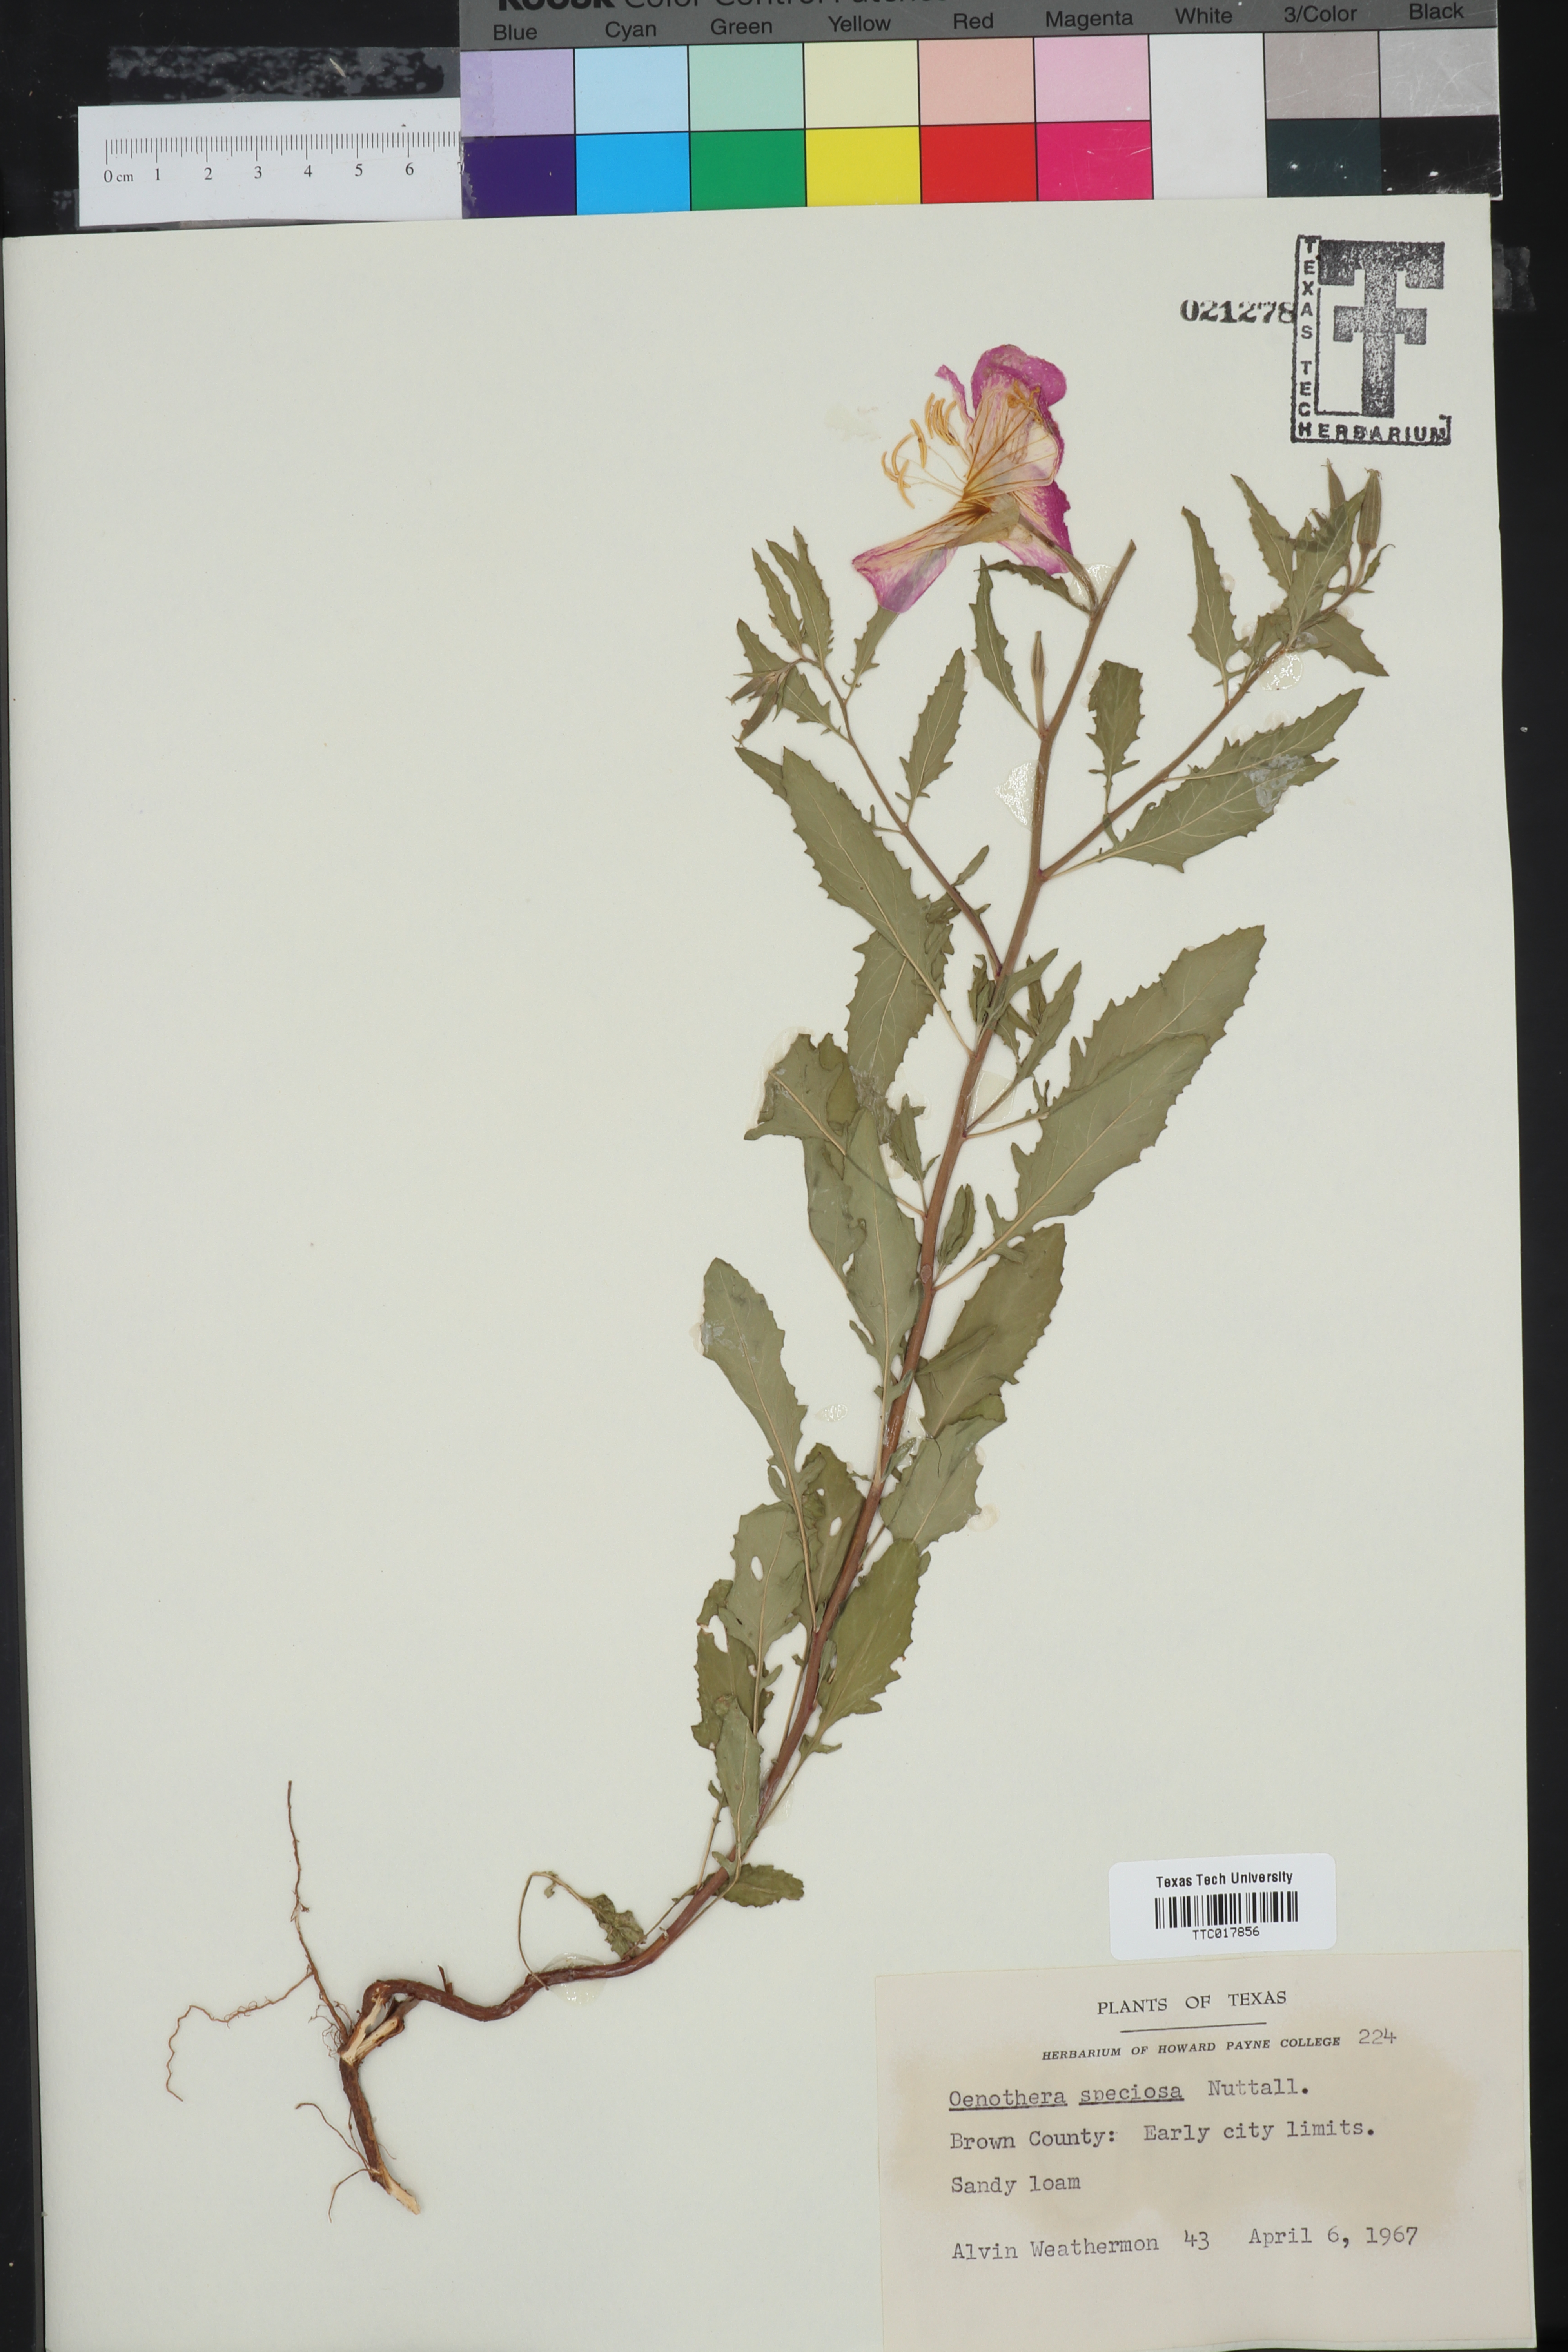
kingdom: Plantae
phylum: Tracheophyta
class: Magnoliopsida
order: Myrtales
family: Onagraceae
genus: Oenothera
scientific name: Oenothera speciosa
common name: White evening-primrose
